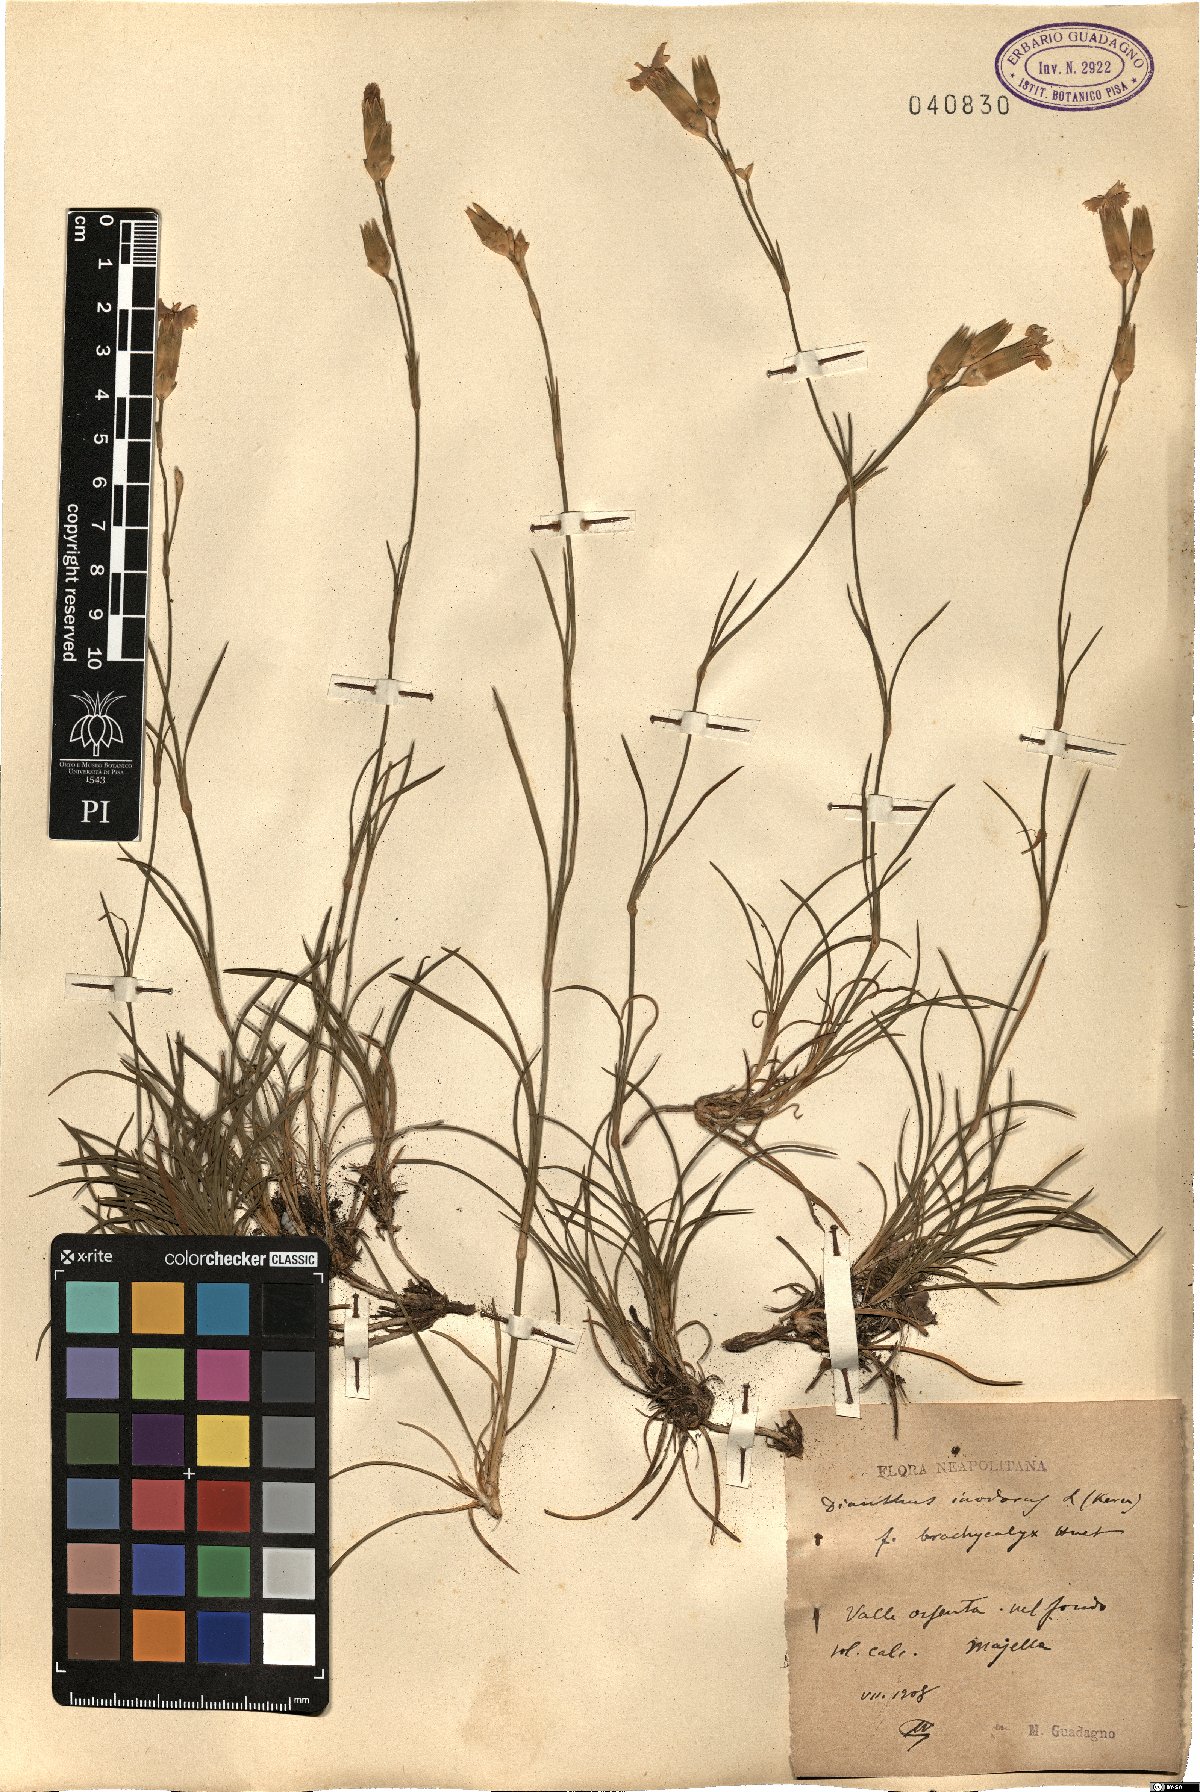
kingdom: Plantae
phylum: Tracheophyta
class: Magnoliopsida
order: Caryophyllales
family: Caryophyllaceae
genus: Dianthus
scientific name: Dianthus sylvestris
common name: Wood pink
